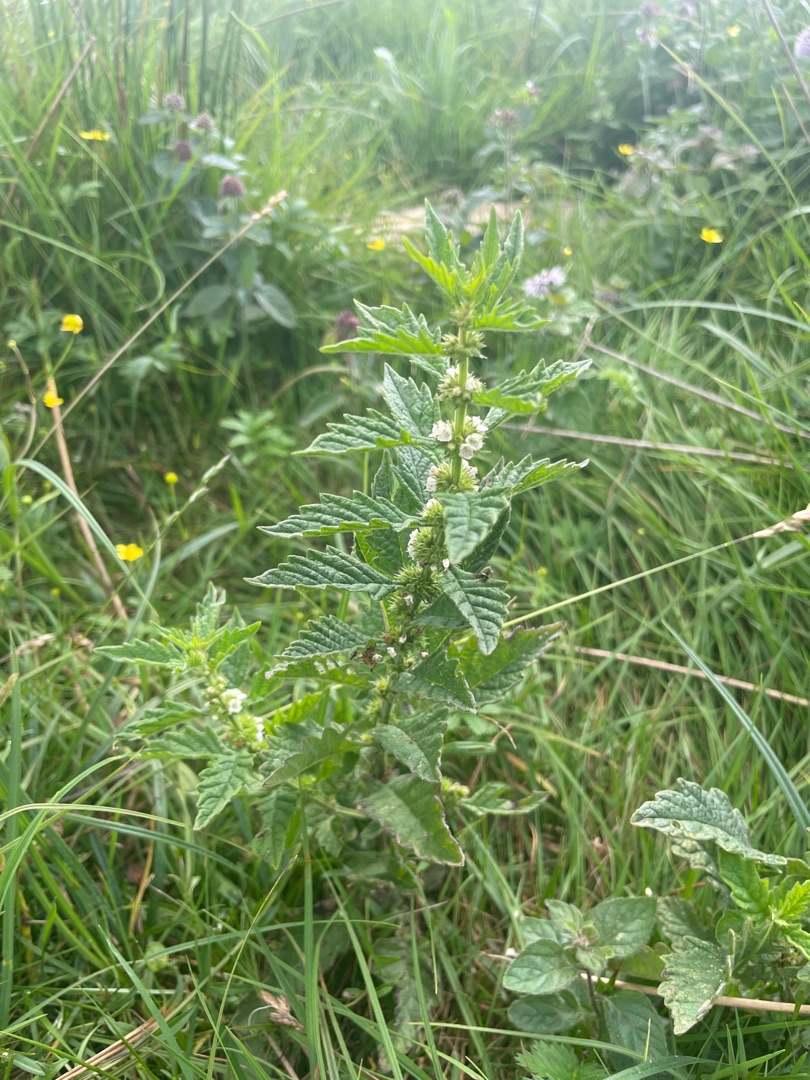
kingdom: Plantae
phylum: Tracheophyta
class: Magnoliopsida
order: Lamiales
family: Lamiaceae
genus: Lycopus
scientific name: Lycopus europaeus
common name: Sværtevæld
